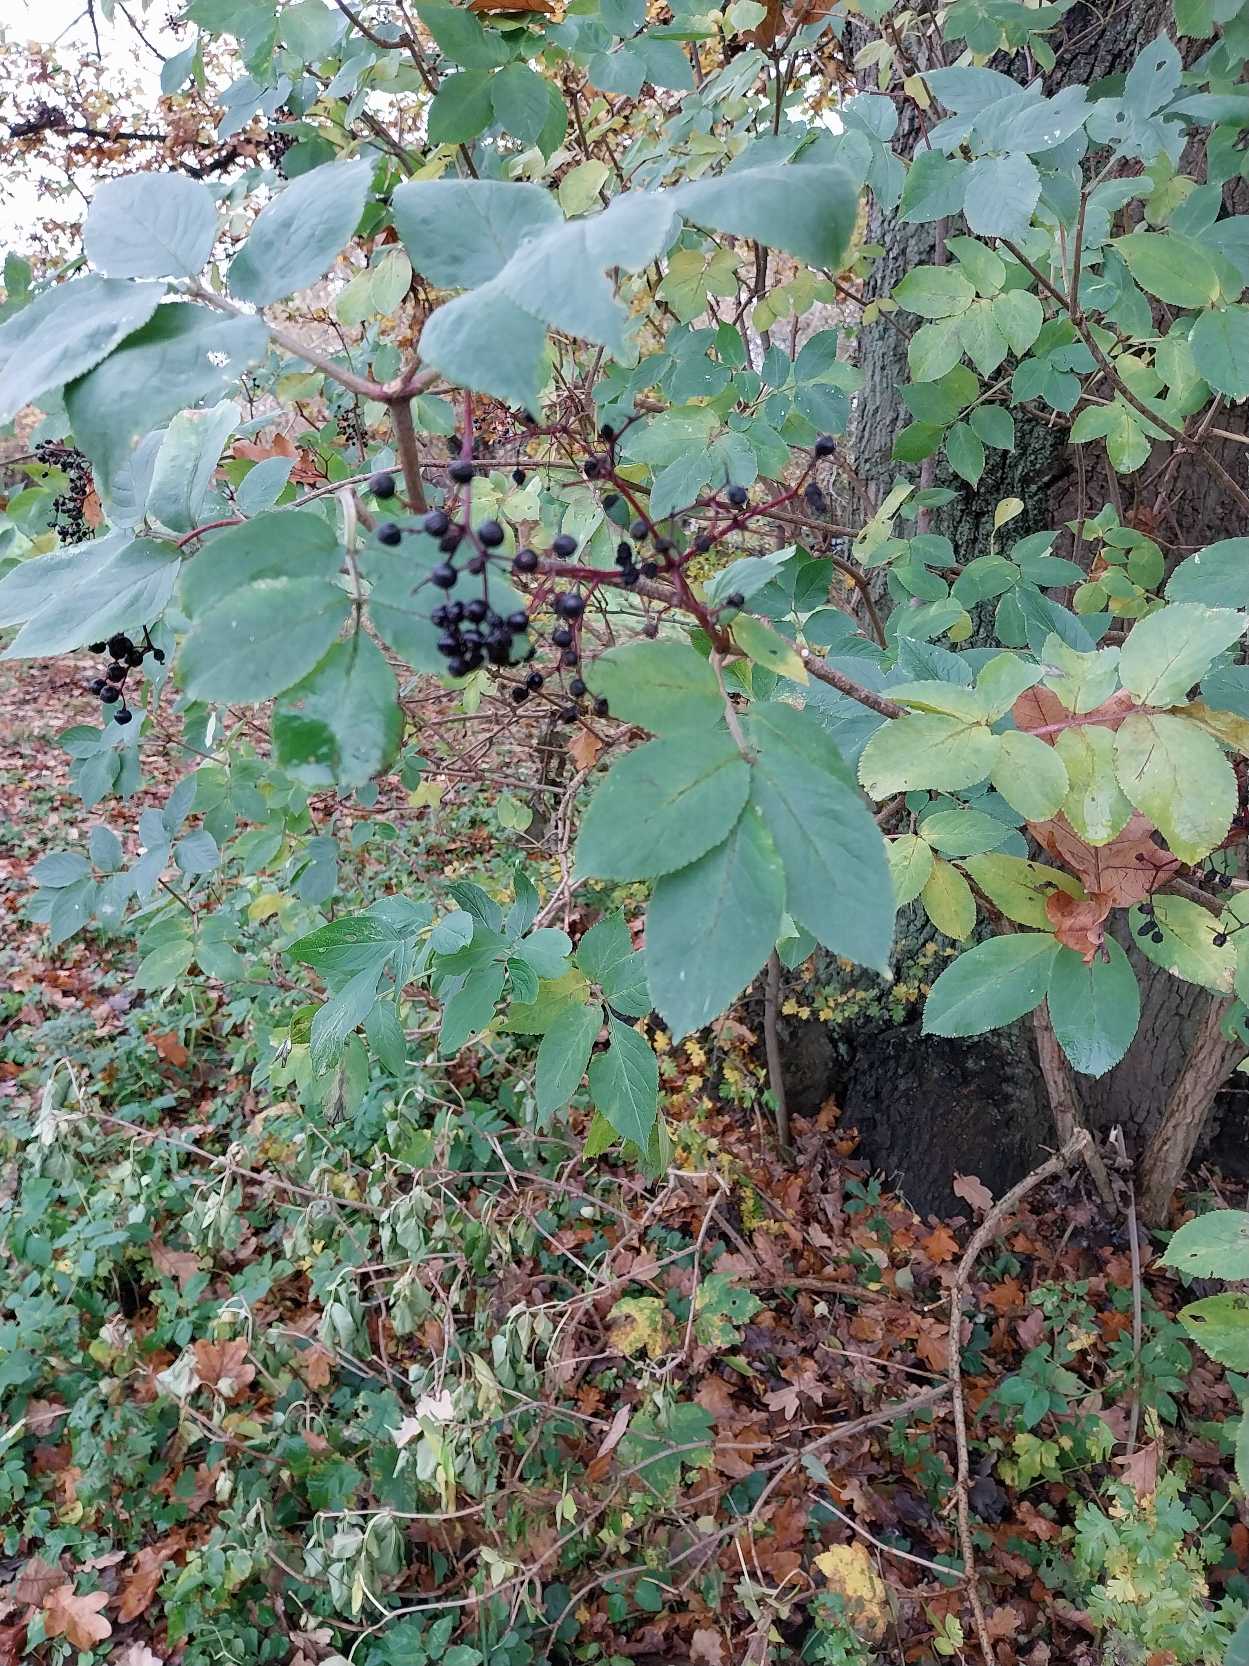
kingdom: Plantae
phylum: Tracheophyta
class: Magnoliopsida
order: Dipsacales
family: Viburnaceae
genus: Sambucus
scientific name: Sambucus nigra
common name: Almindelig hyld
